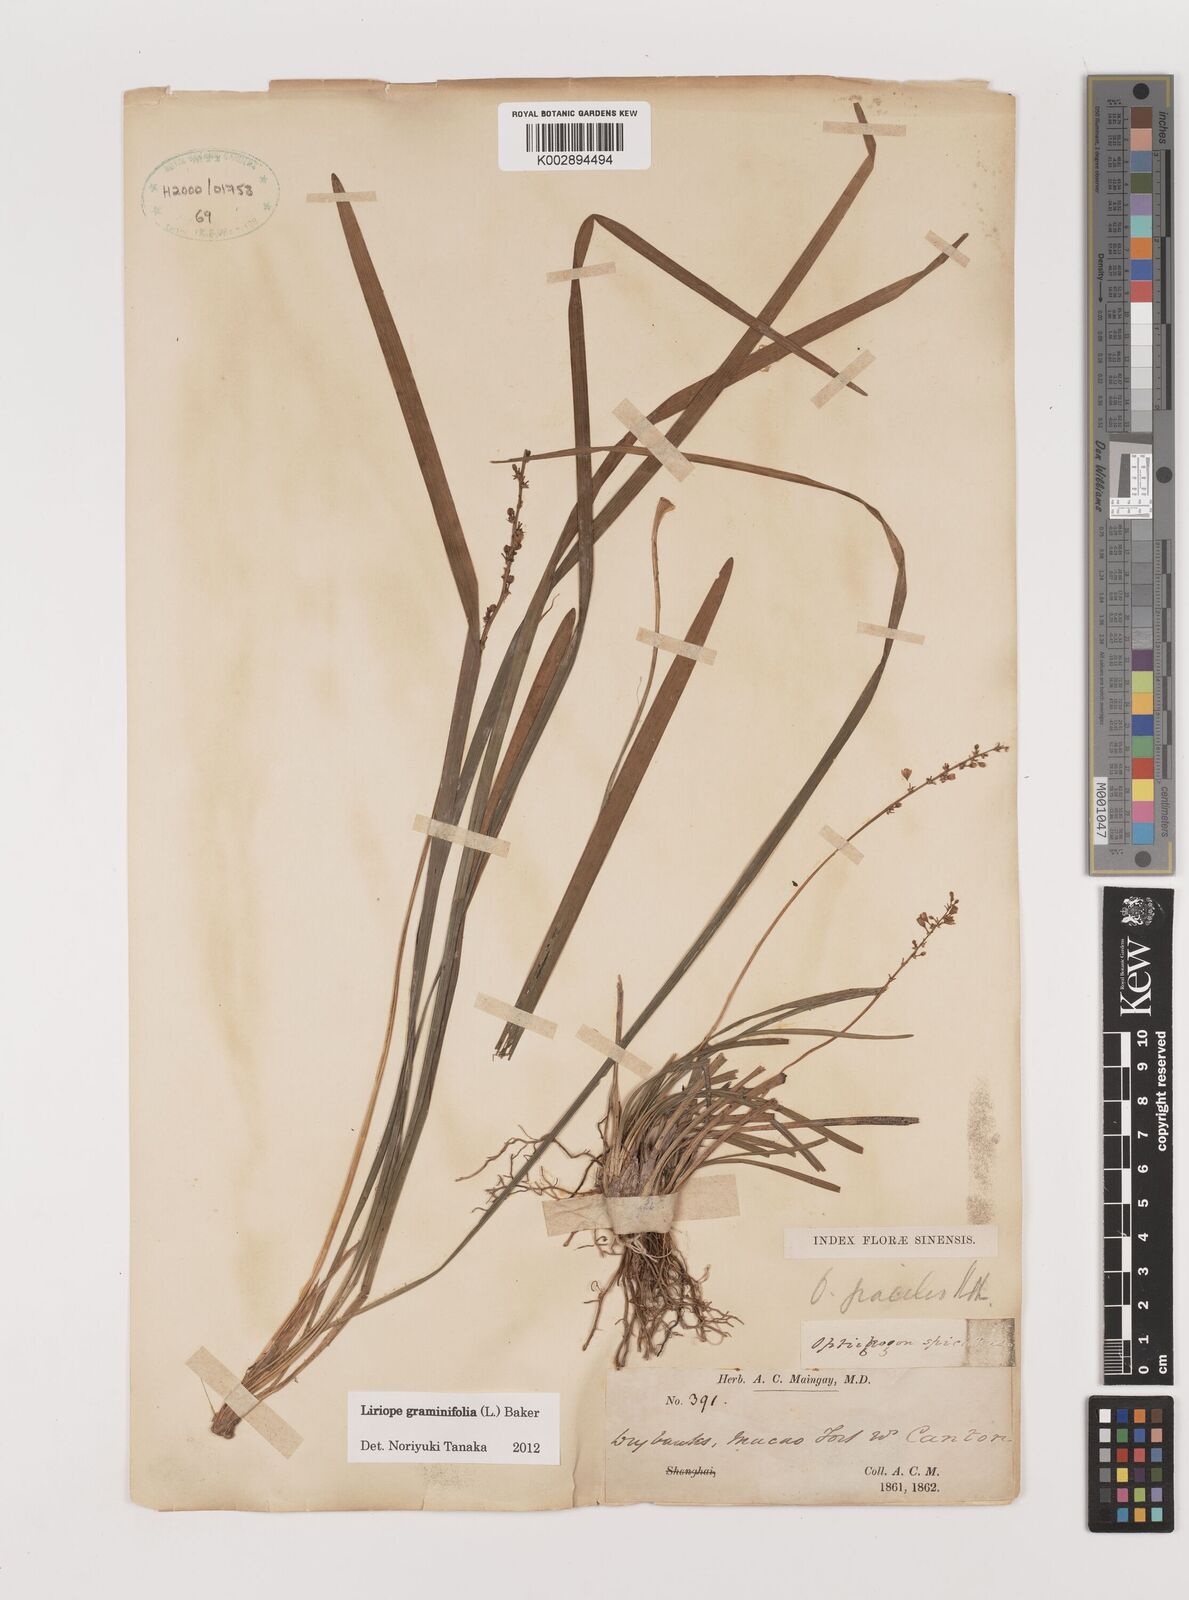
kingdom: Plantae
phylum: Tracheophyta
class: Liliopsida
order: Asparagales
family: Asparagaceae
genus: Liriope
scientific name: Liriope graminifolia
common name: Lilyturf
